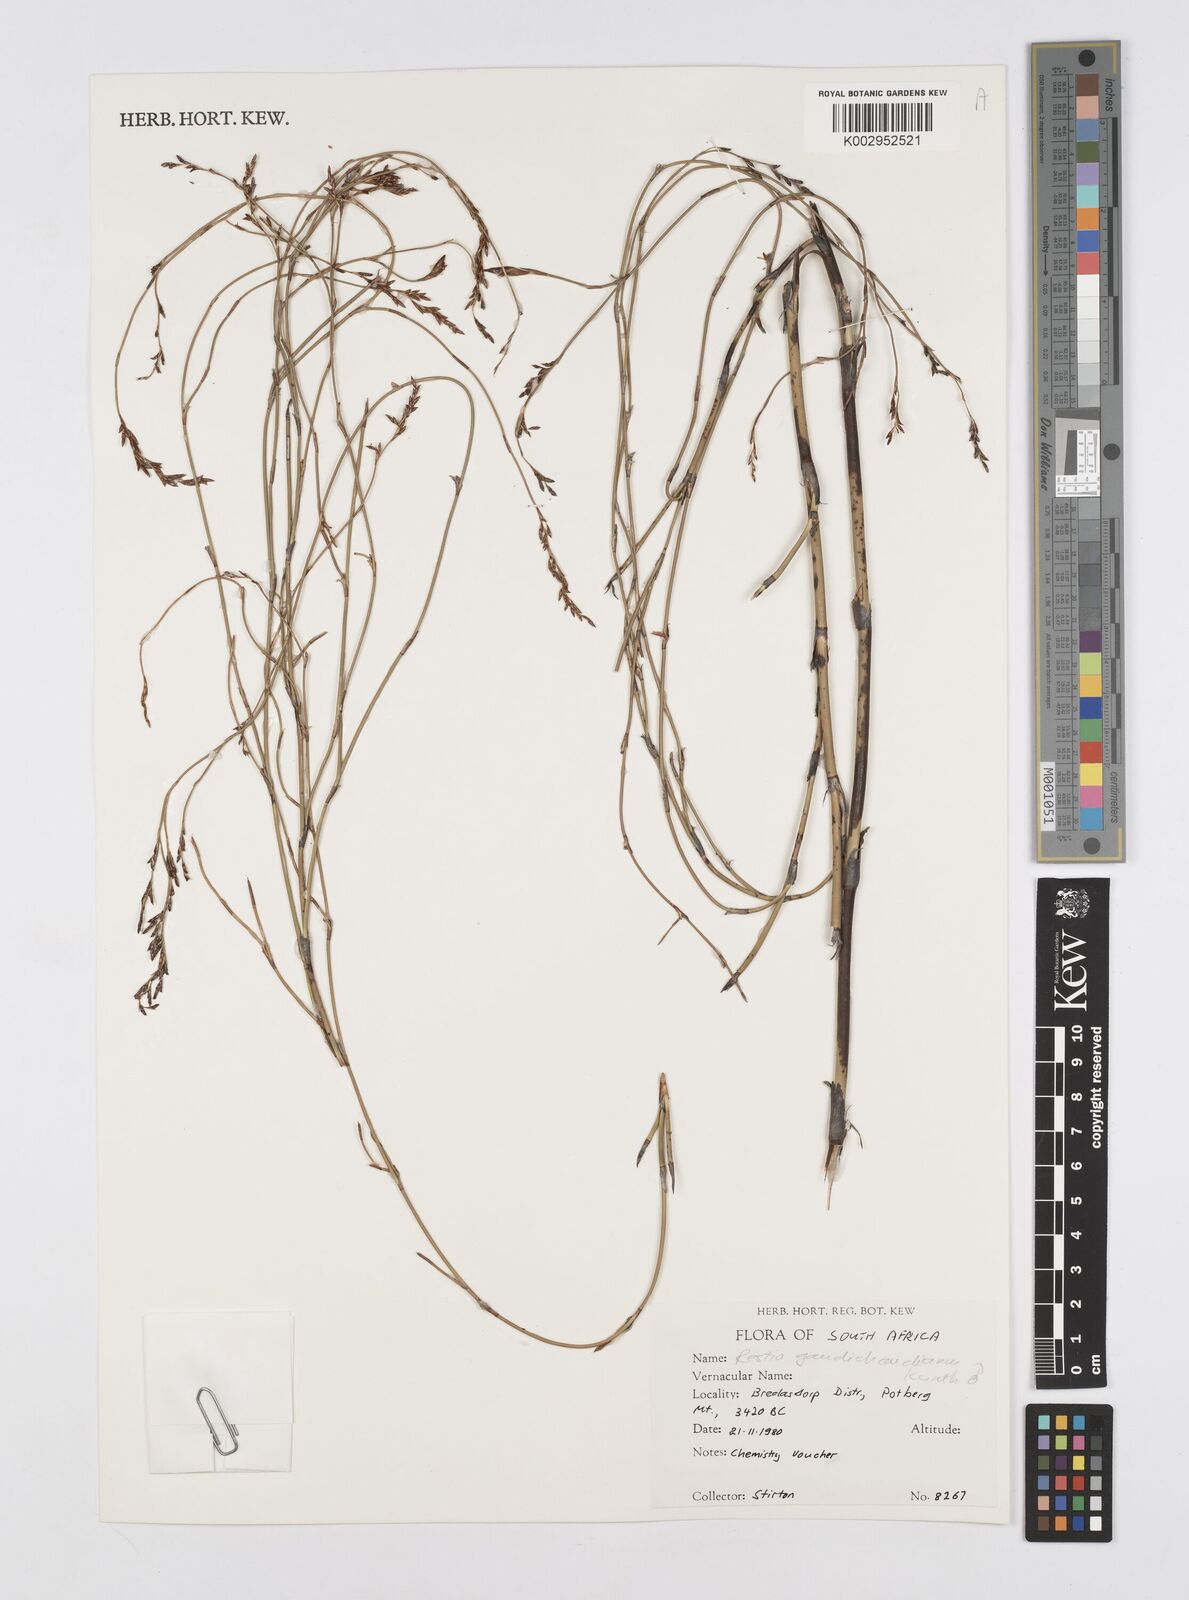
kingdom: Plantae
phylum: Tracheophyta
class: Liliopsida
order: Poales
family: Restionaceae
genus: Restio
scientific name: Restio gaudichaudianus
